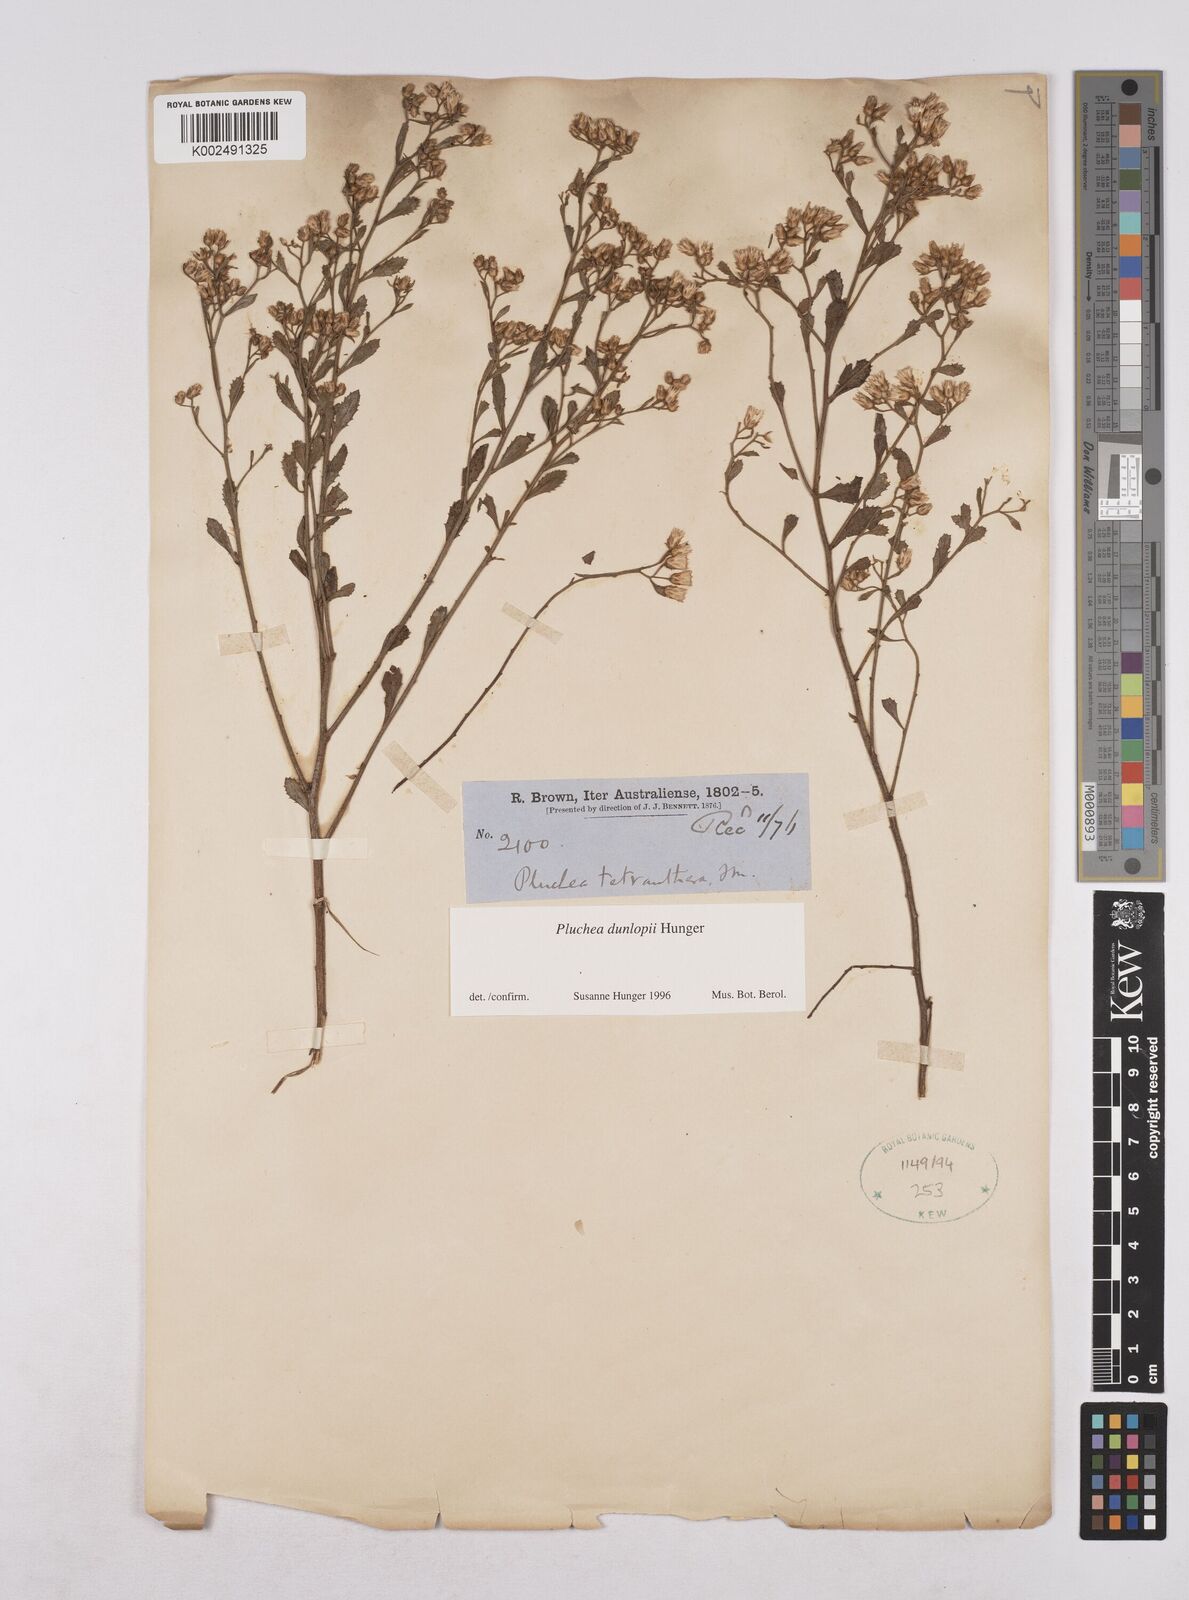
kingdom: Plantae
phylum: Tracheophyta
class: Magnoliopsida
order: Asterales
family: Asteraceae
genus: Pluchea
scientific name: Pluchea dunlopii
